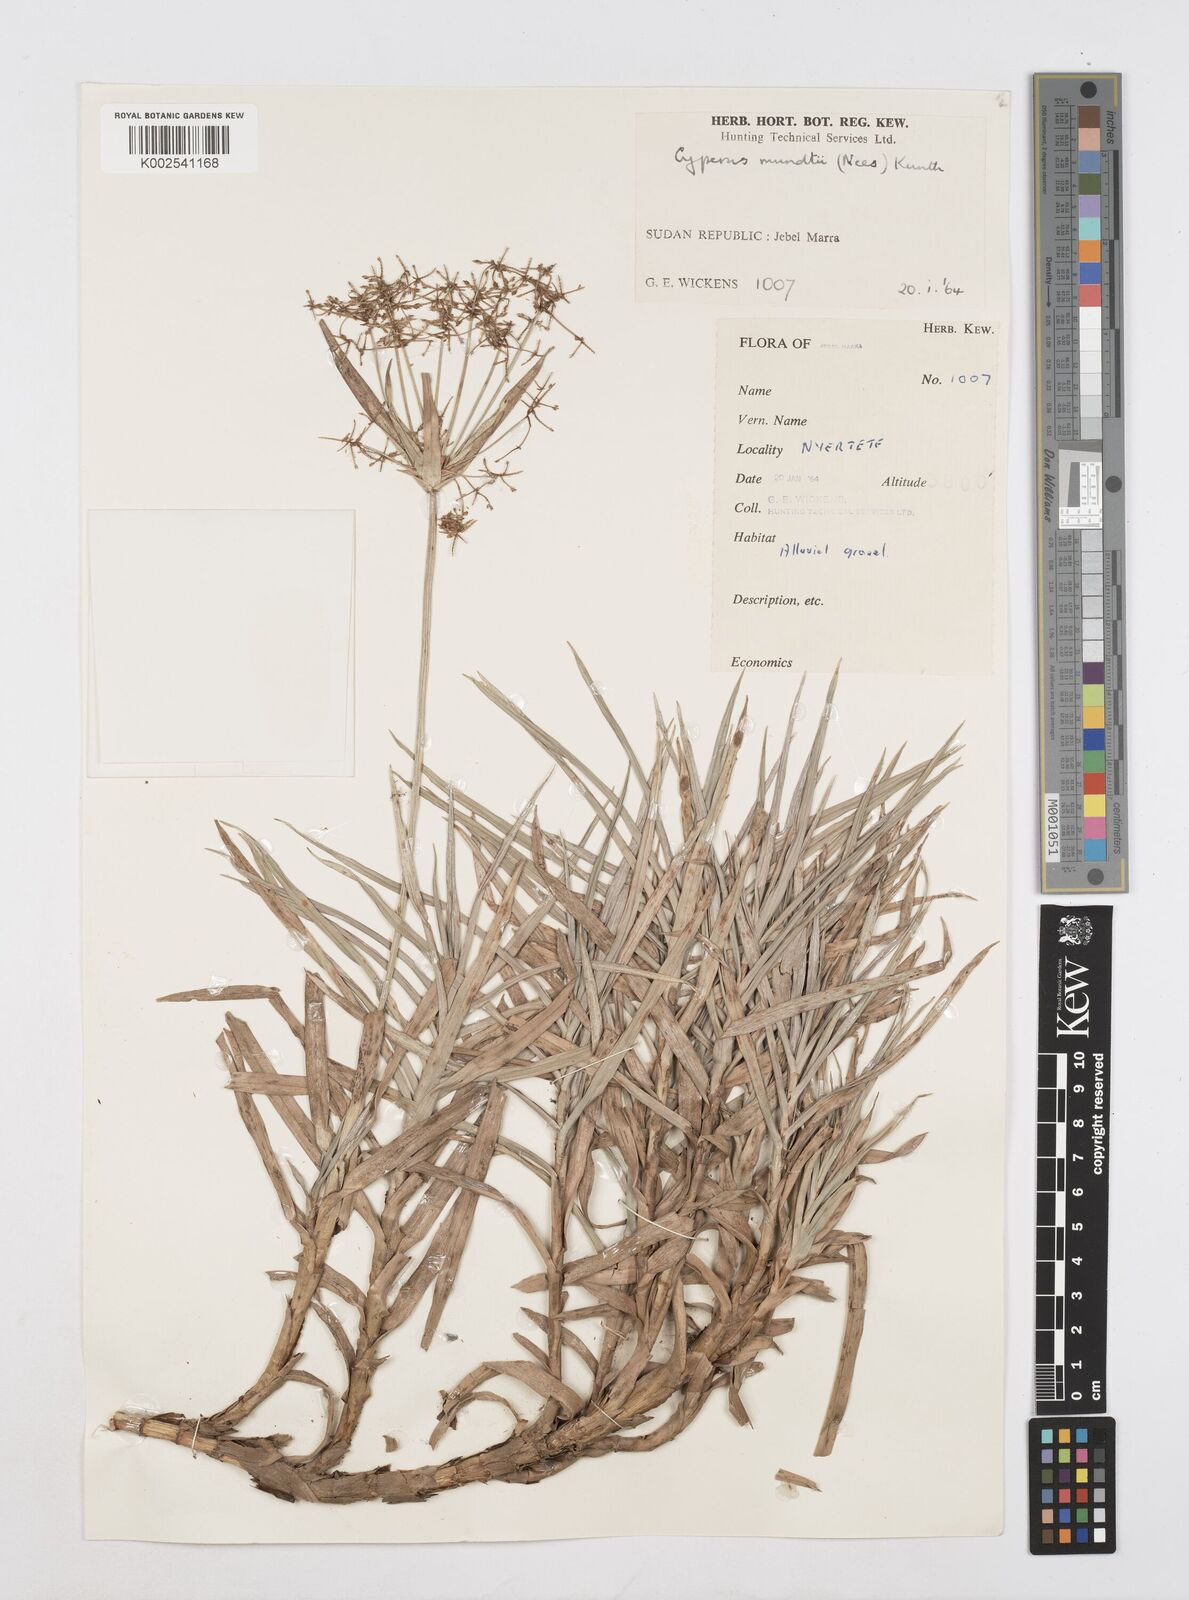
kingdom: Plantae
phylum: Tracheophyta
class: Liliopsida
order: Poales
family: Cyperaceae
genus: Cyperus
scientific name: Cyperus mundii
